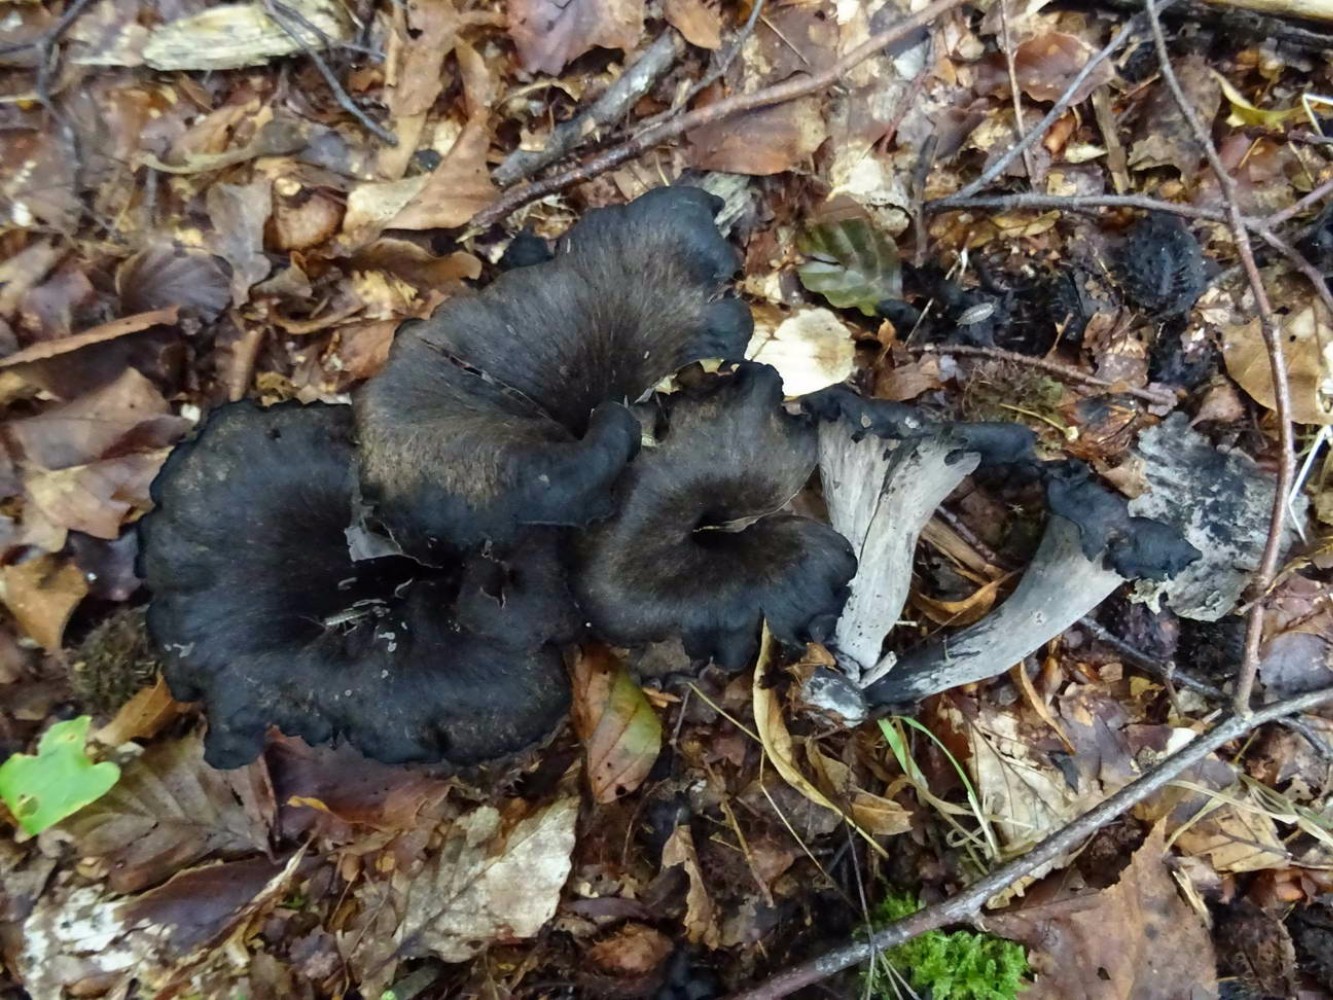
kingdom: Fungi
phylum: Basidiomycota
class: Agaricomycetes
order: Cantharellales
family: Hydnaceae
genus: Craterellus
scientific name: Craterellus cornucopioides
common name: trompetsvamp
